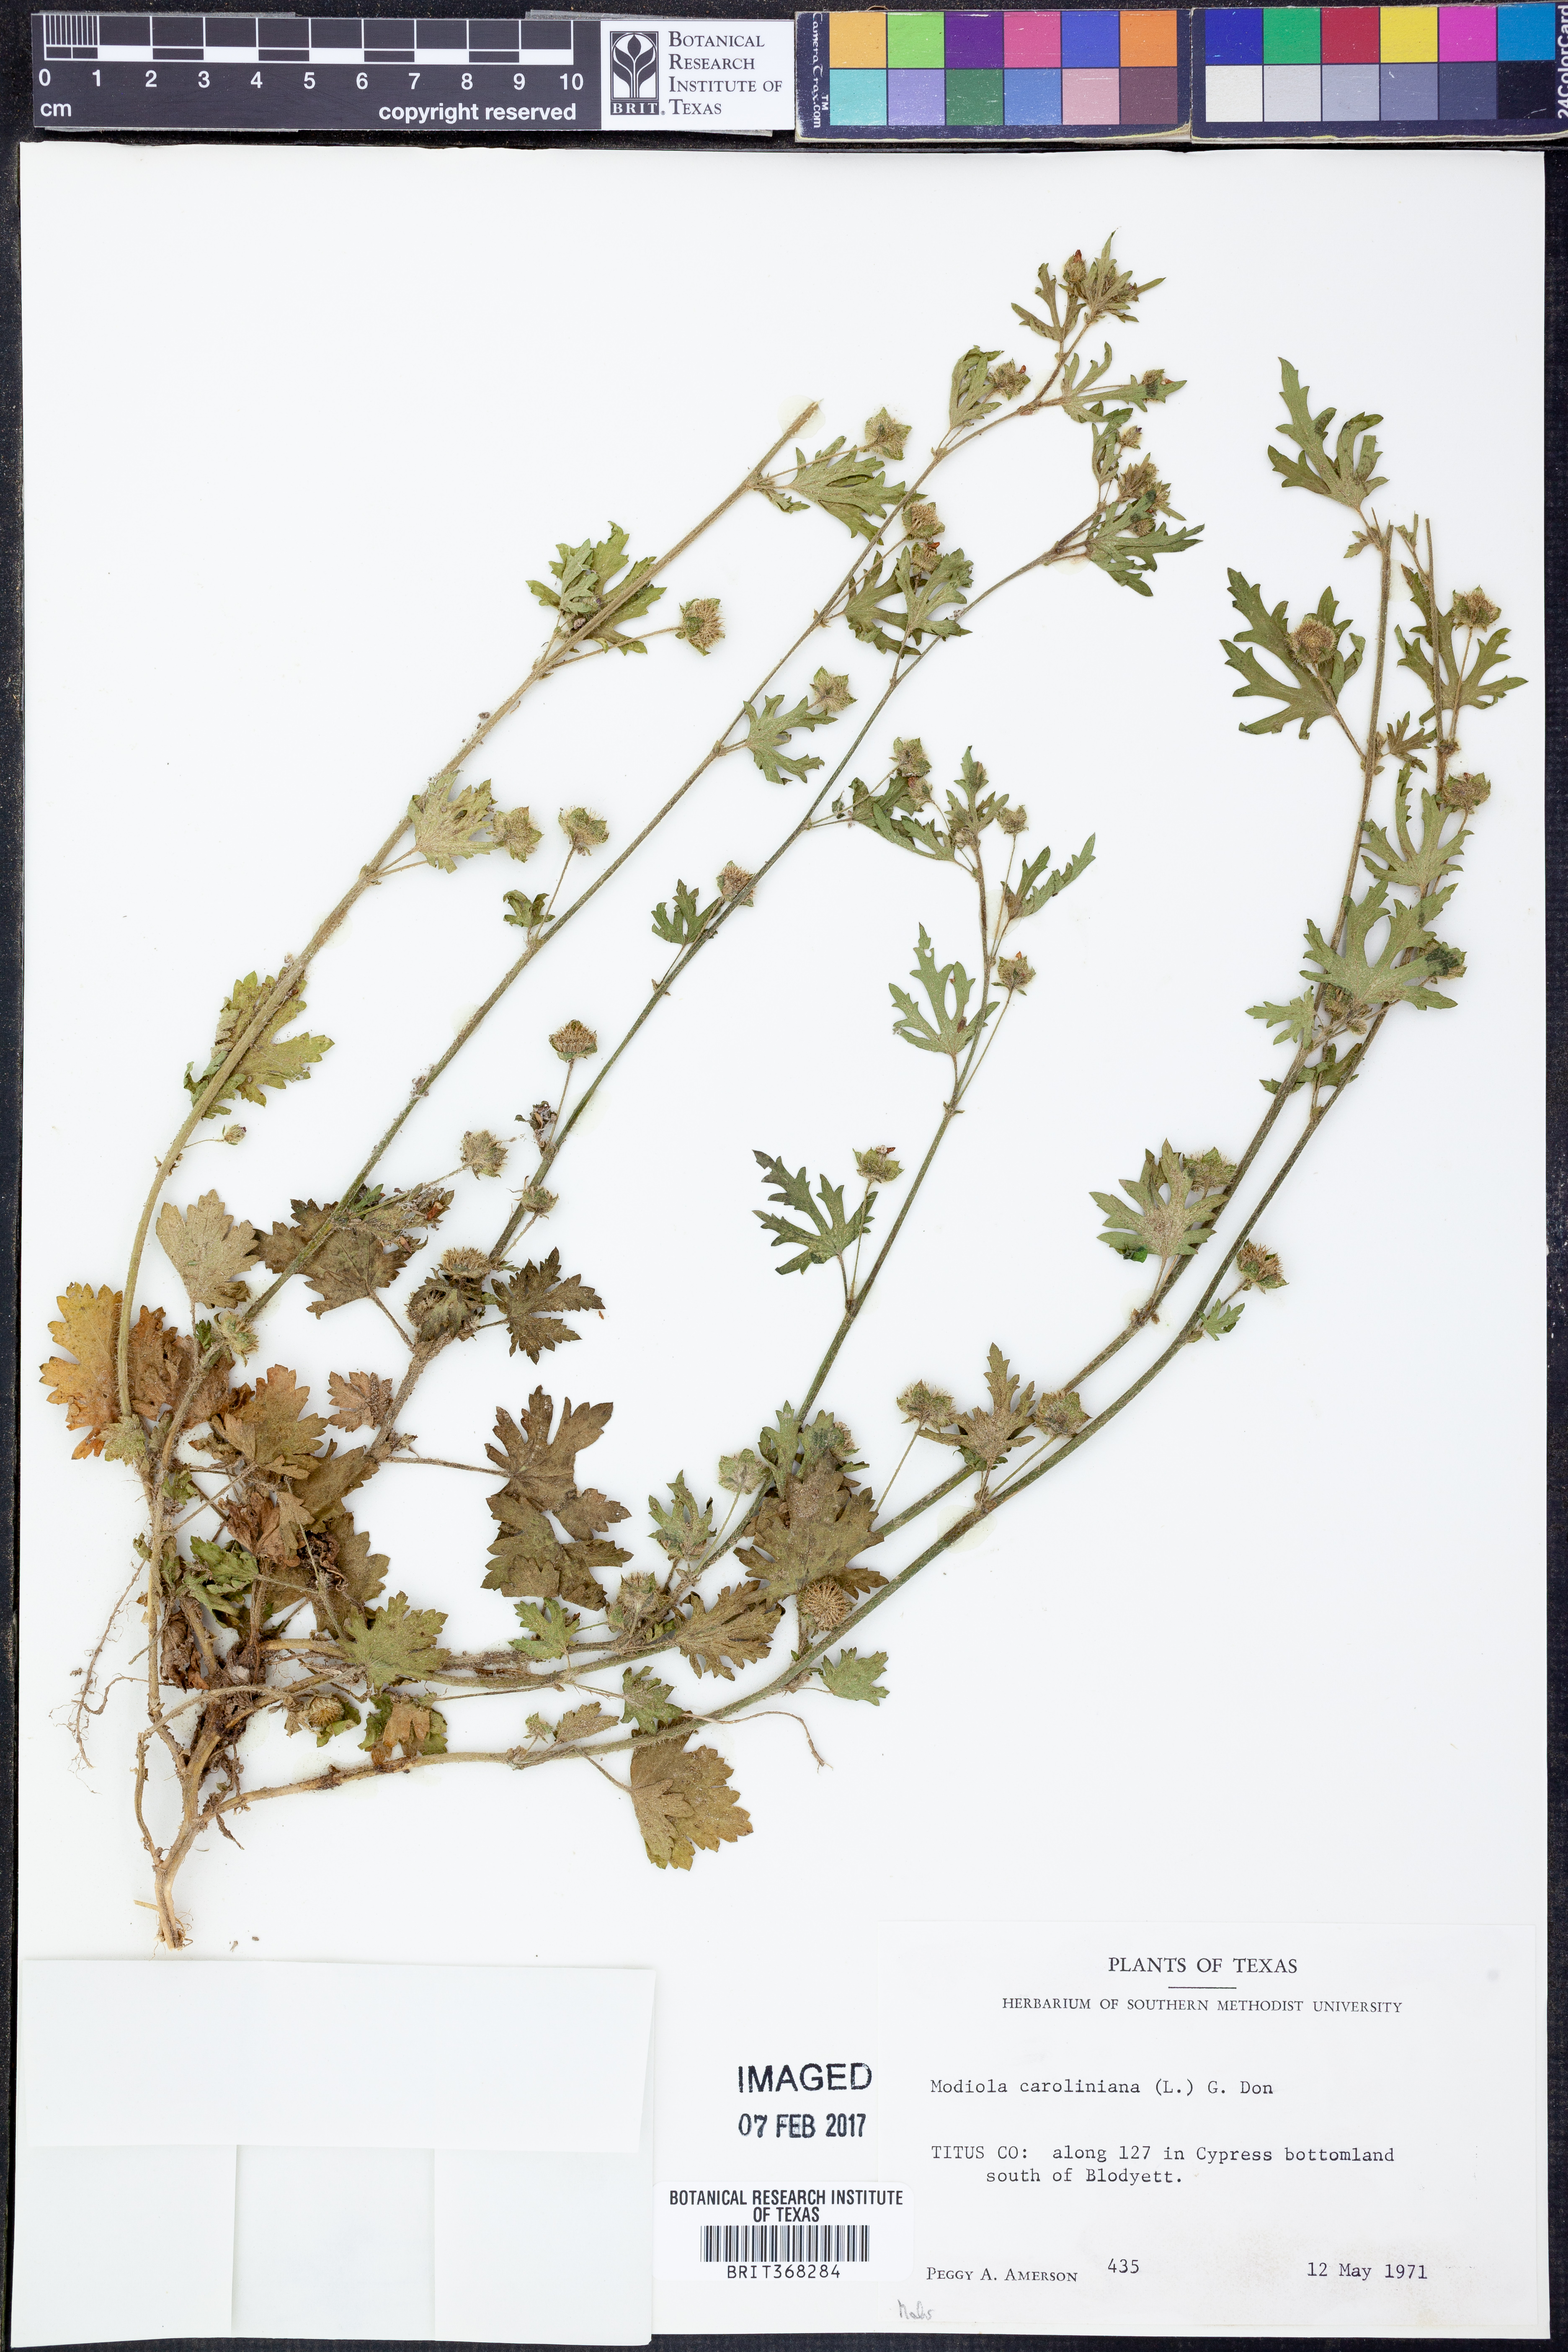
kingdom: Plantae
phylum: Tracheophyta
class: Magnoliopsida
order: Malvales
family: Malvaceae
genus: Modiola
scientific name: Modiola caroliniana
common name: Carolina bristlemallow
